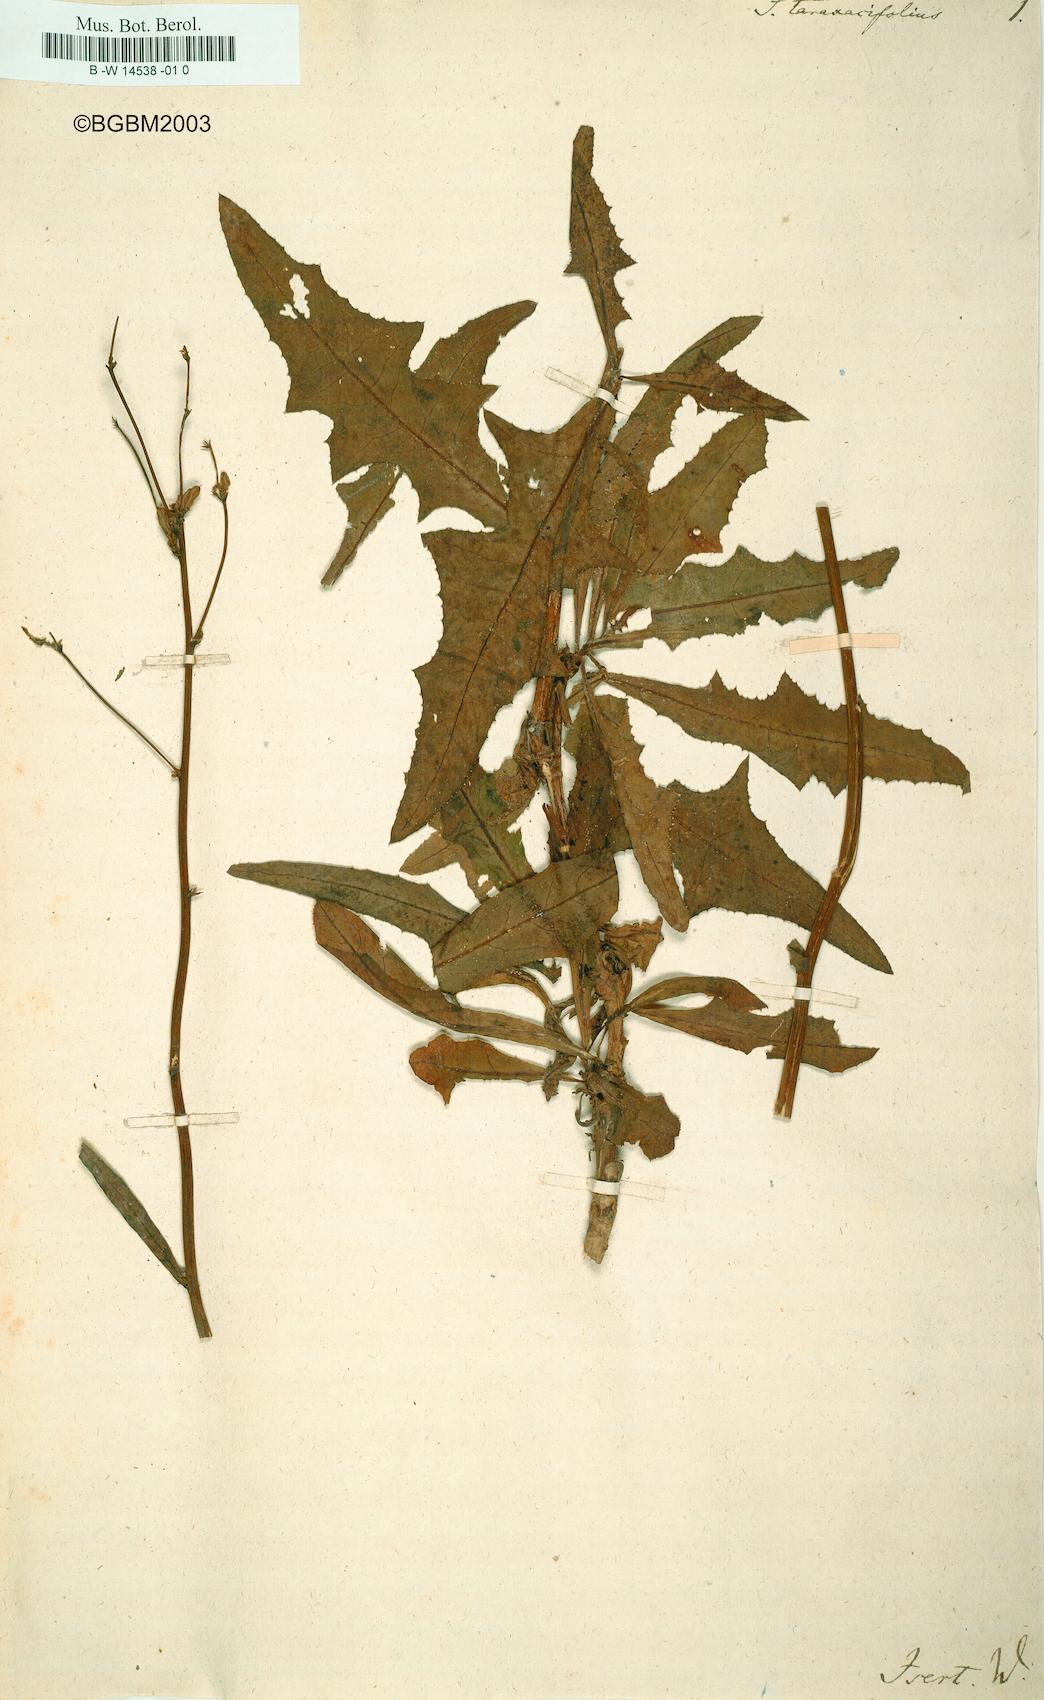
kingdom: Plantae
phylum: Tracheophyta
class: Magnoliopsida
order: Asterales
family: Asteraceae
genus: Launaea
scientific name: Launaea
